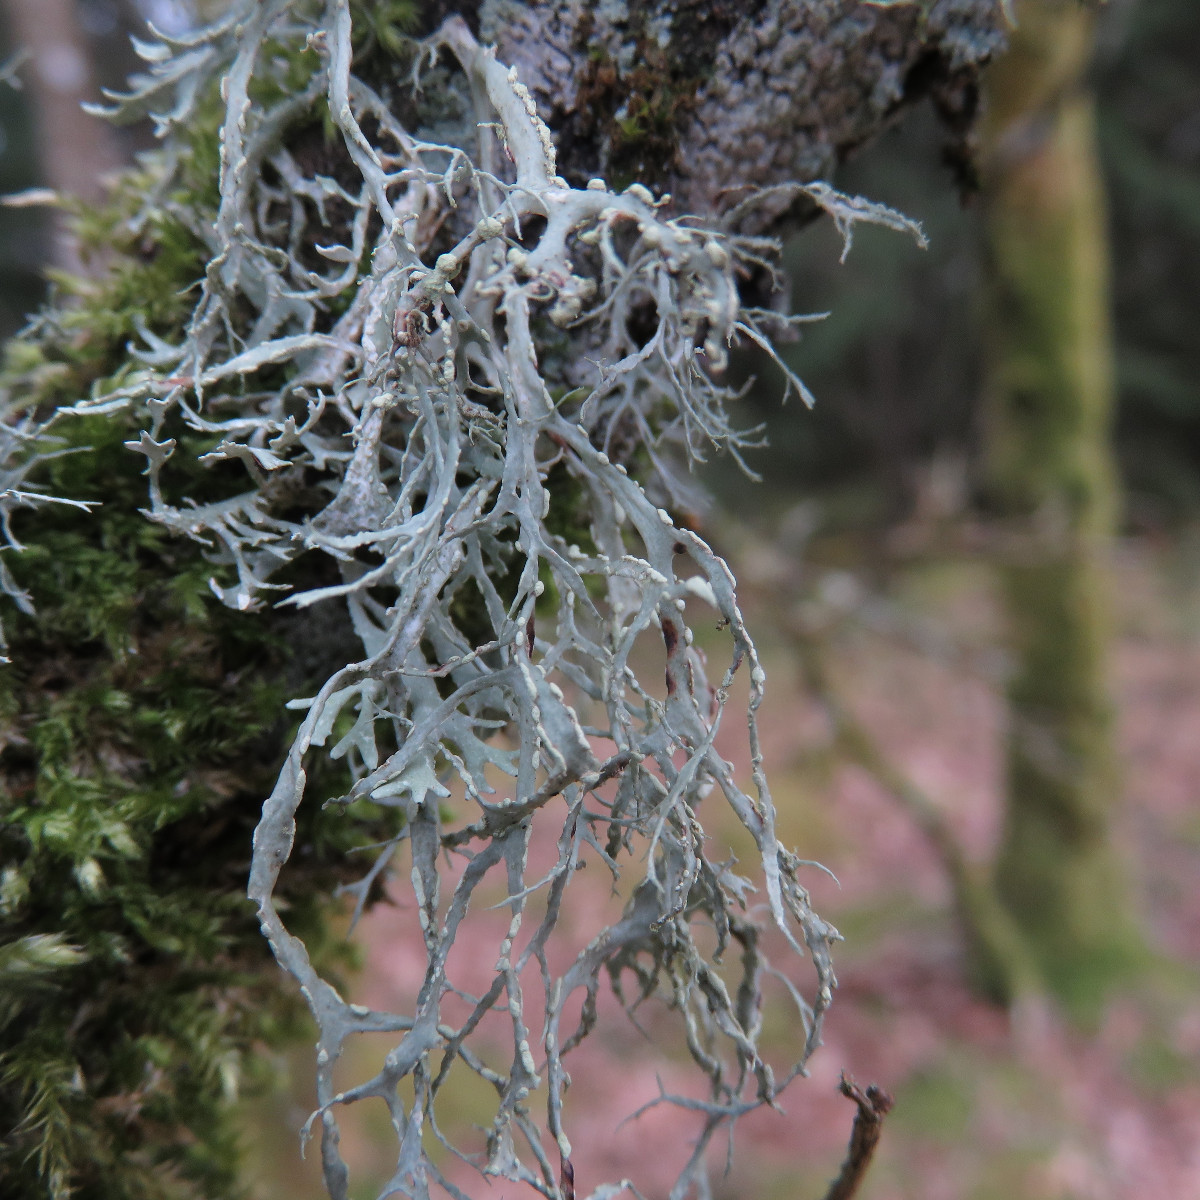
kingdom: Fungi
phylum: Ascomycota
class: Lecanoromycetes
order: Lecanorales
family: Ramalinaceae
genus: Ramalina
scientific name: Ramalina farinacea
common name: melet grenlav
